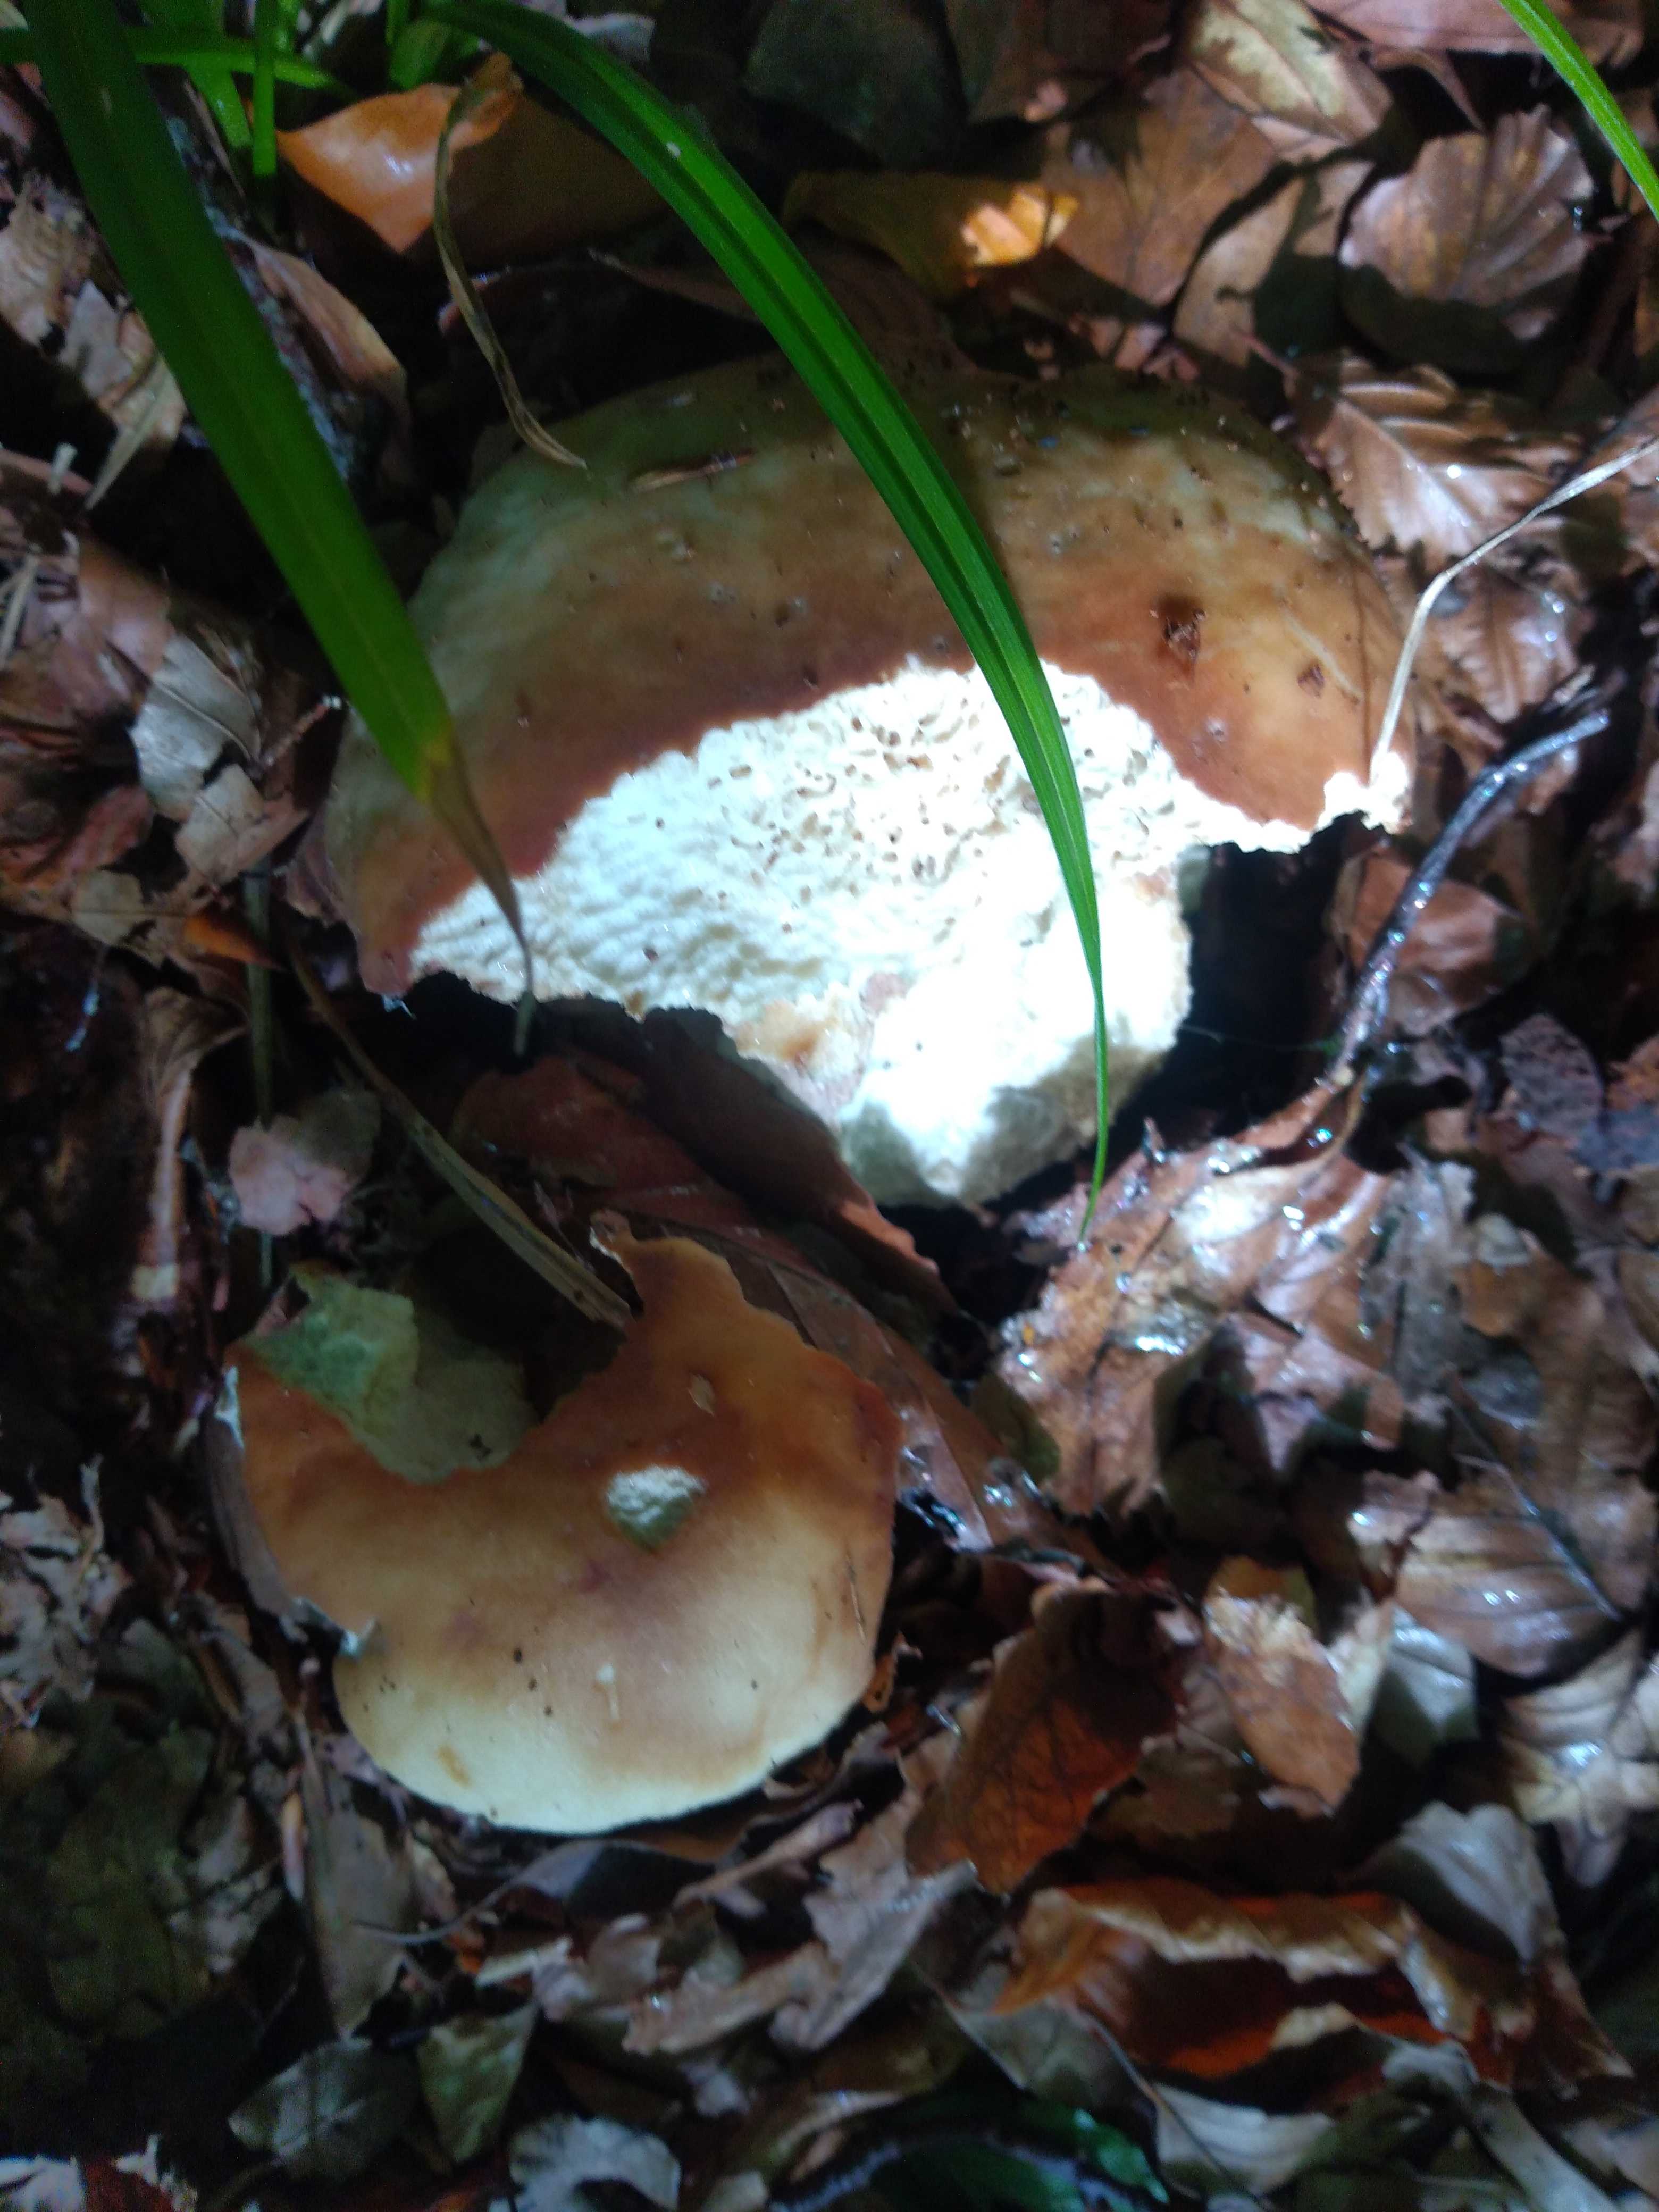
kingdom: Fungi
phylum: Basidiomycota
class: Agaricomycetes
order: Boletales
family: Boletaceae
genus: Boletus
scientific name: Boletus edulis
